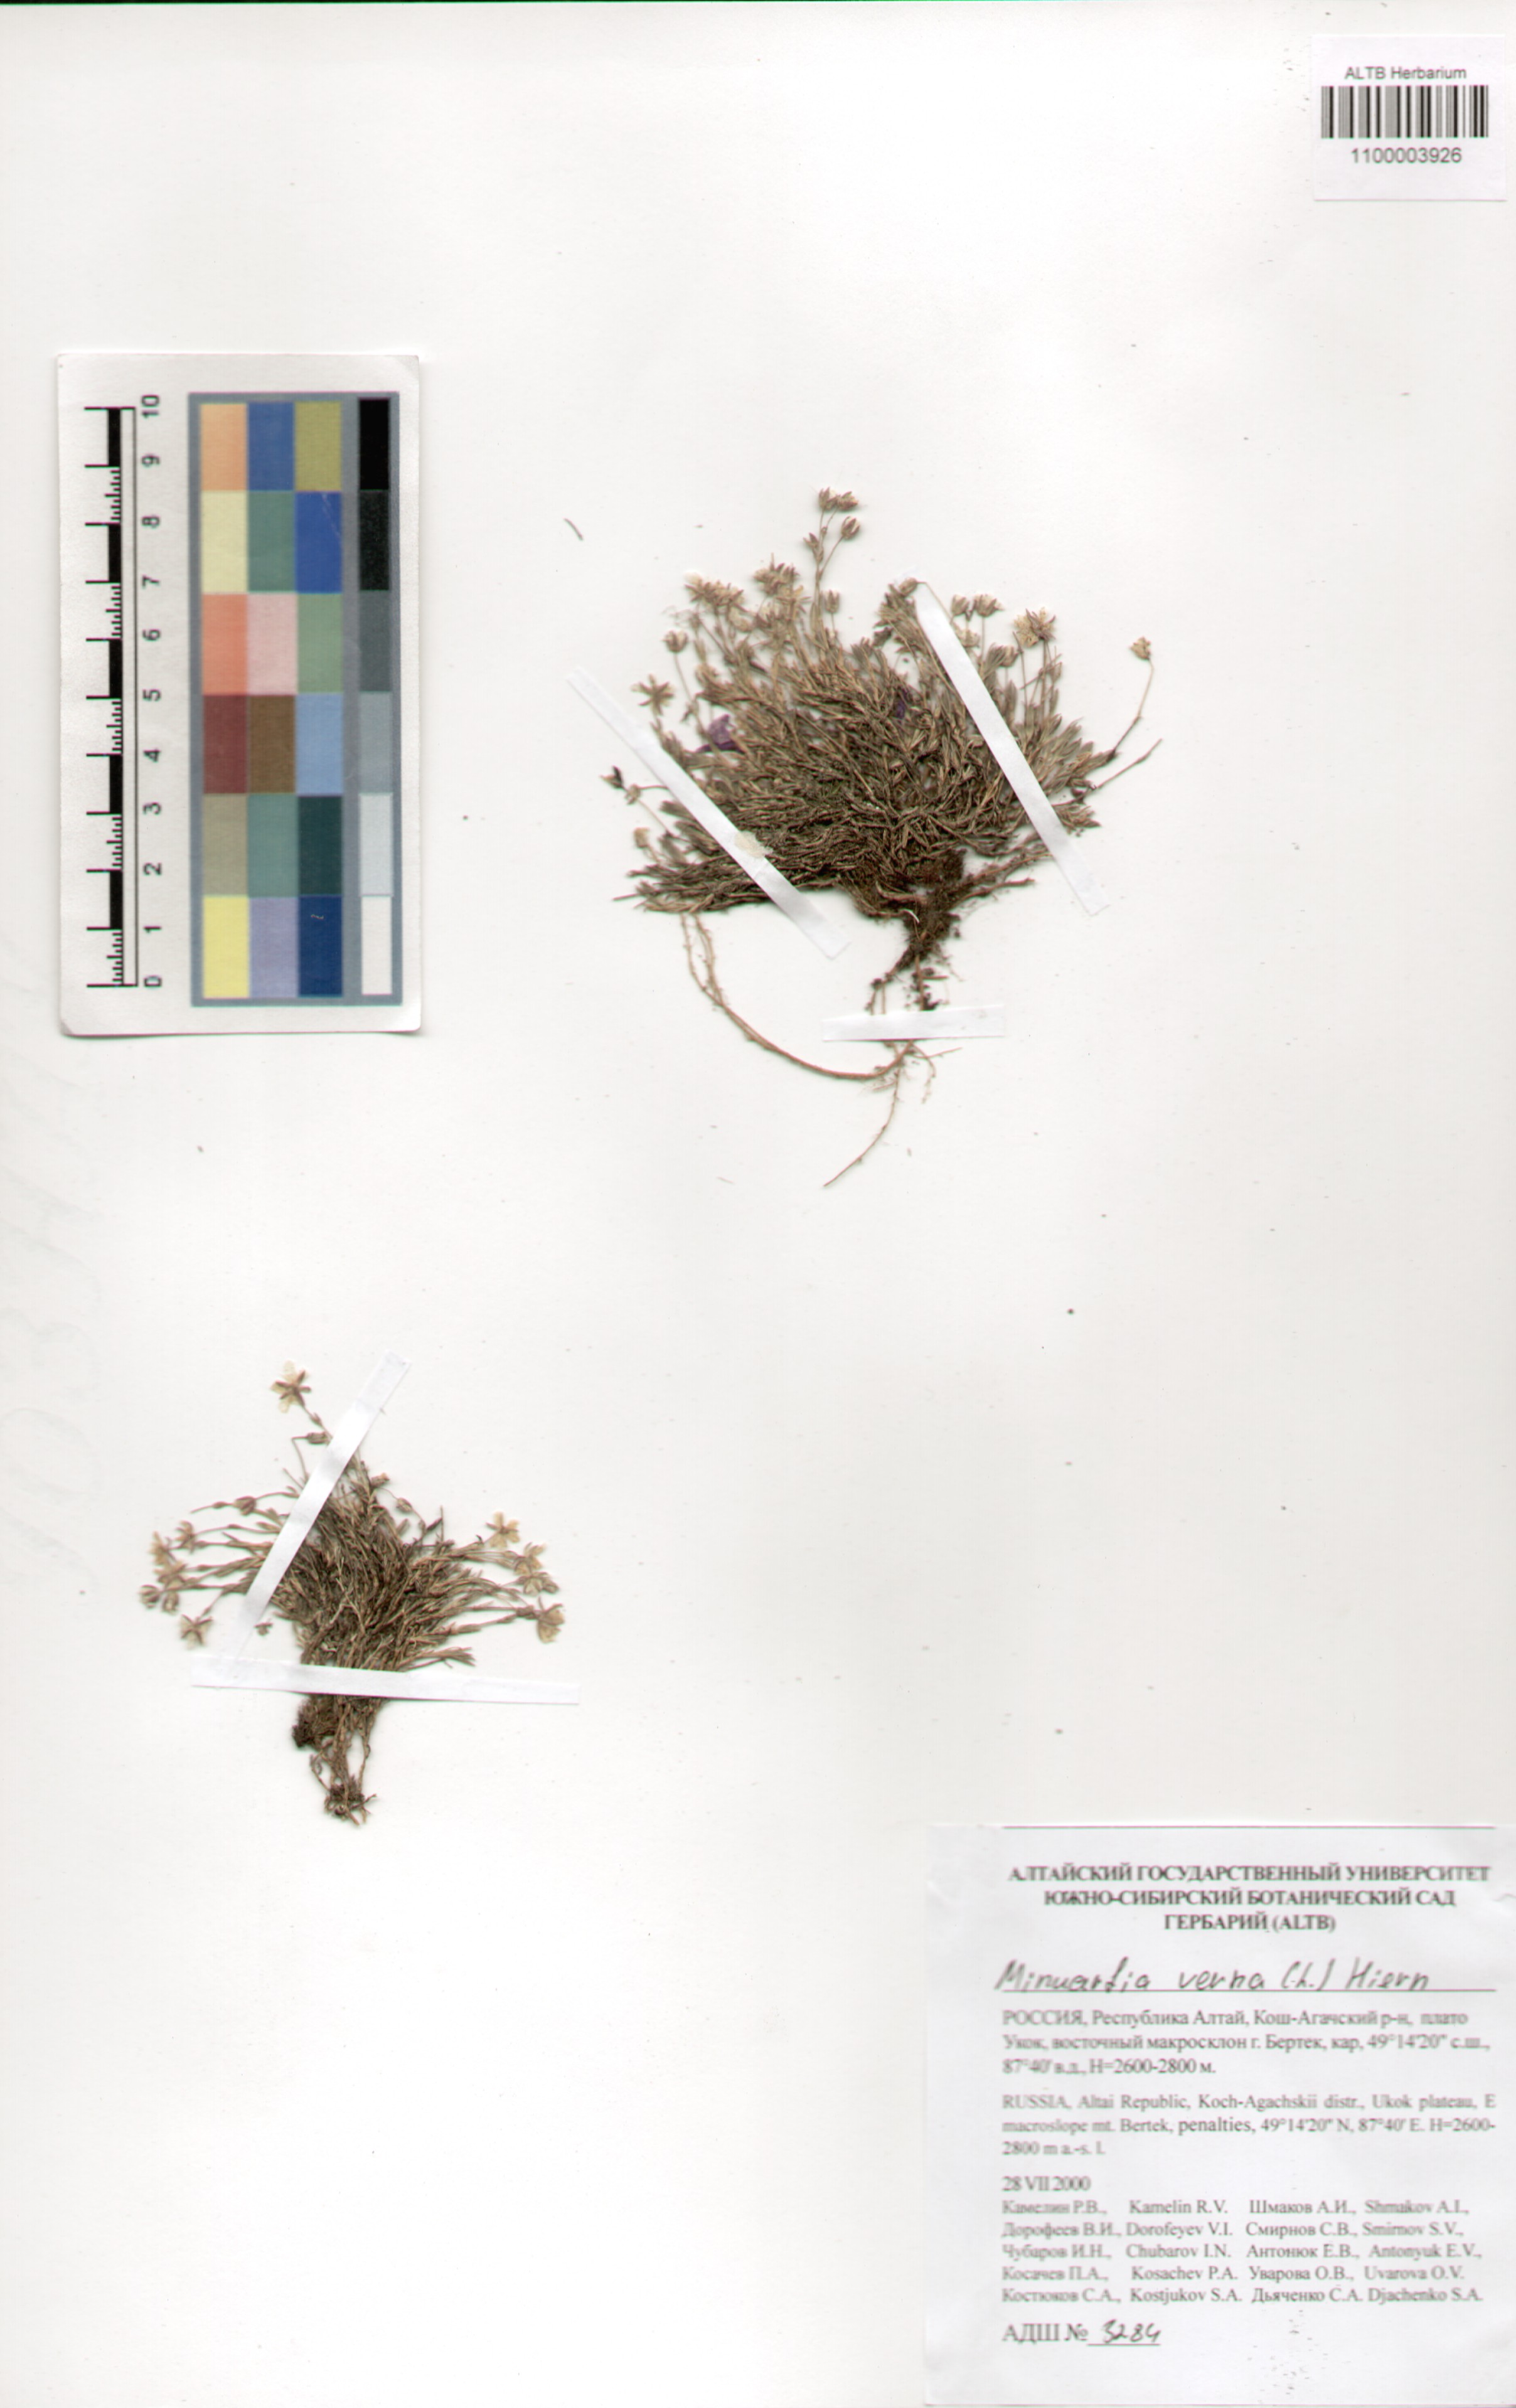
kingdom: Plantae
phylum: Tracheophyta
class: Magnoliopsida
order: Caryophyllales
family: Caryophyllaceae
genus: Sabulina
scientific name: Sabulina verna
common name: Spring sandwort
